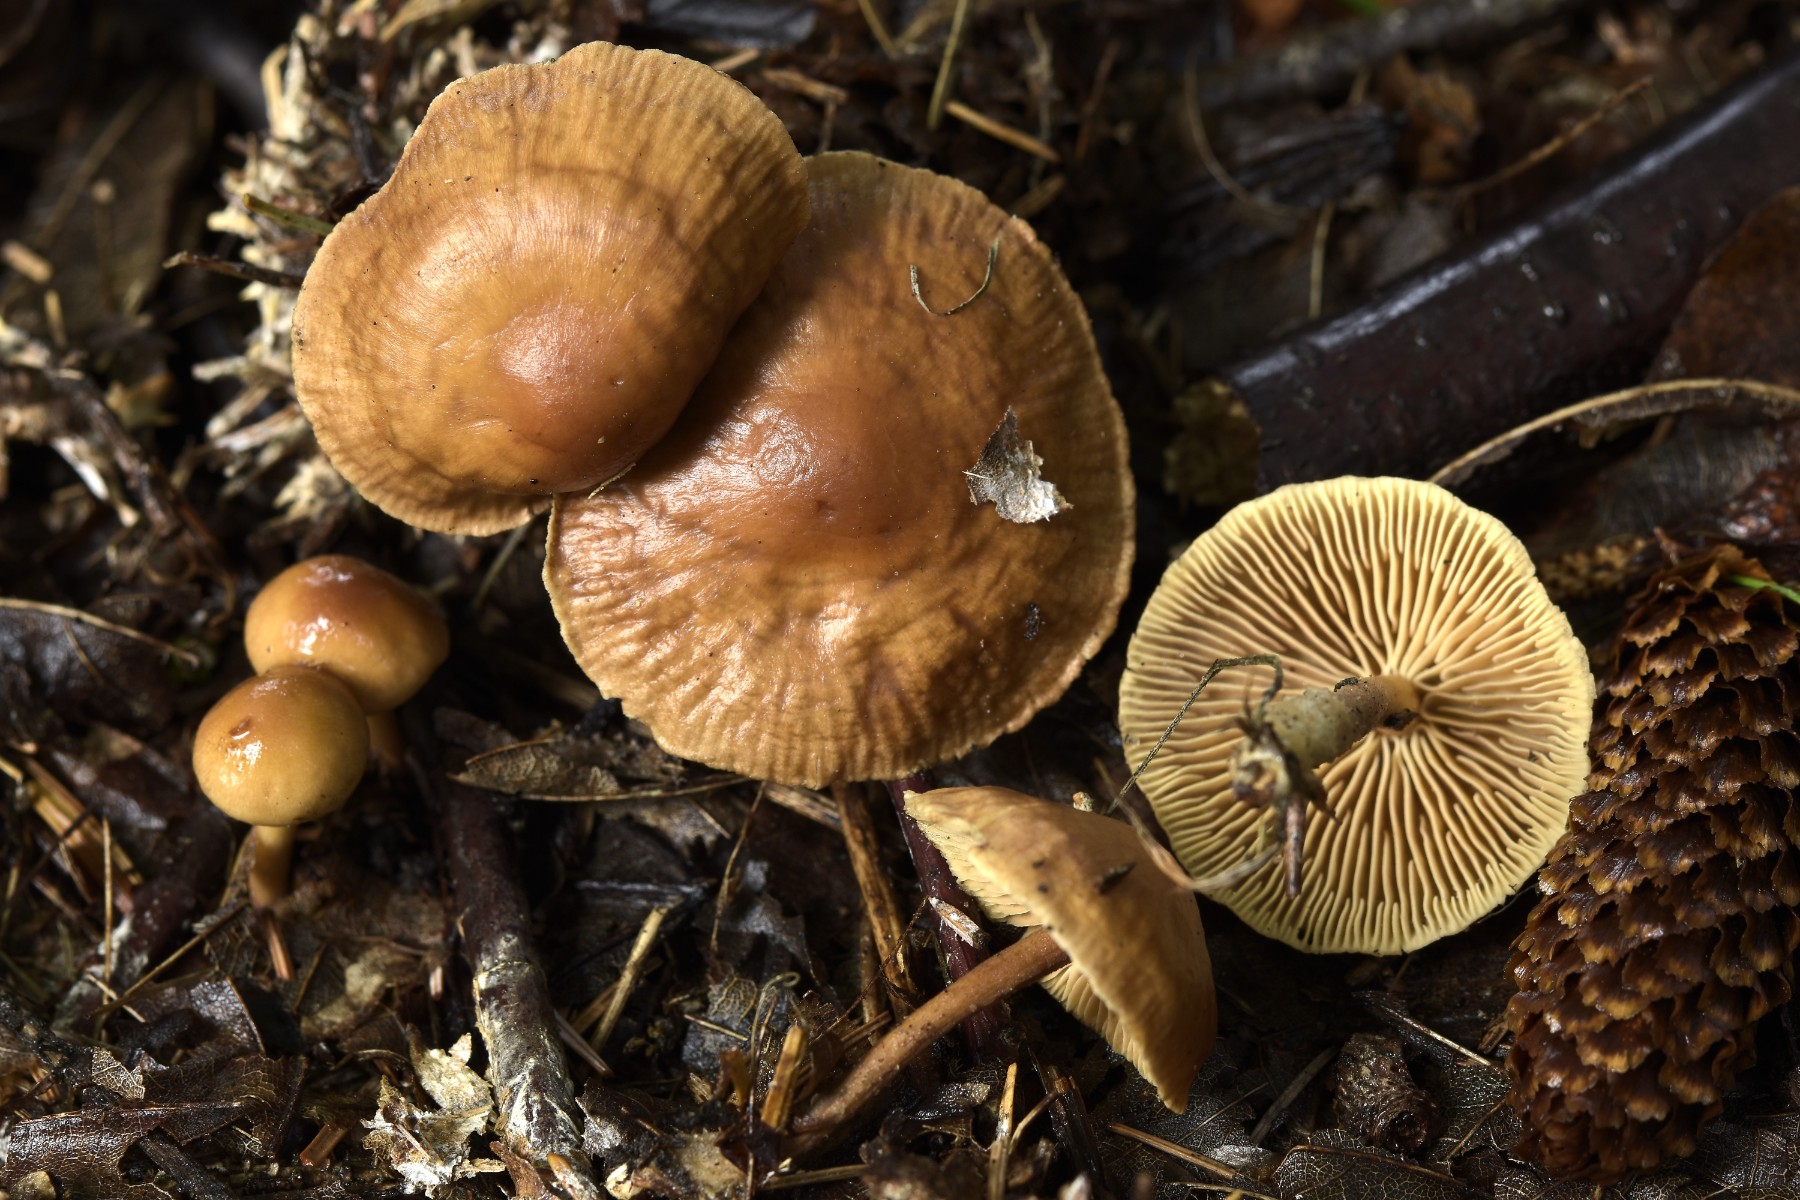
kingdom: Fungi
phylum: Basidiomycota
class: Agaricomycetes
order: Agaricales
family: Omphalotaceae
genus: Collybiopsis
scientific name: Collybiopsis peronata
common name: bestøvlet fladhat
